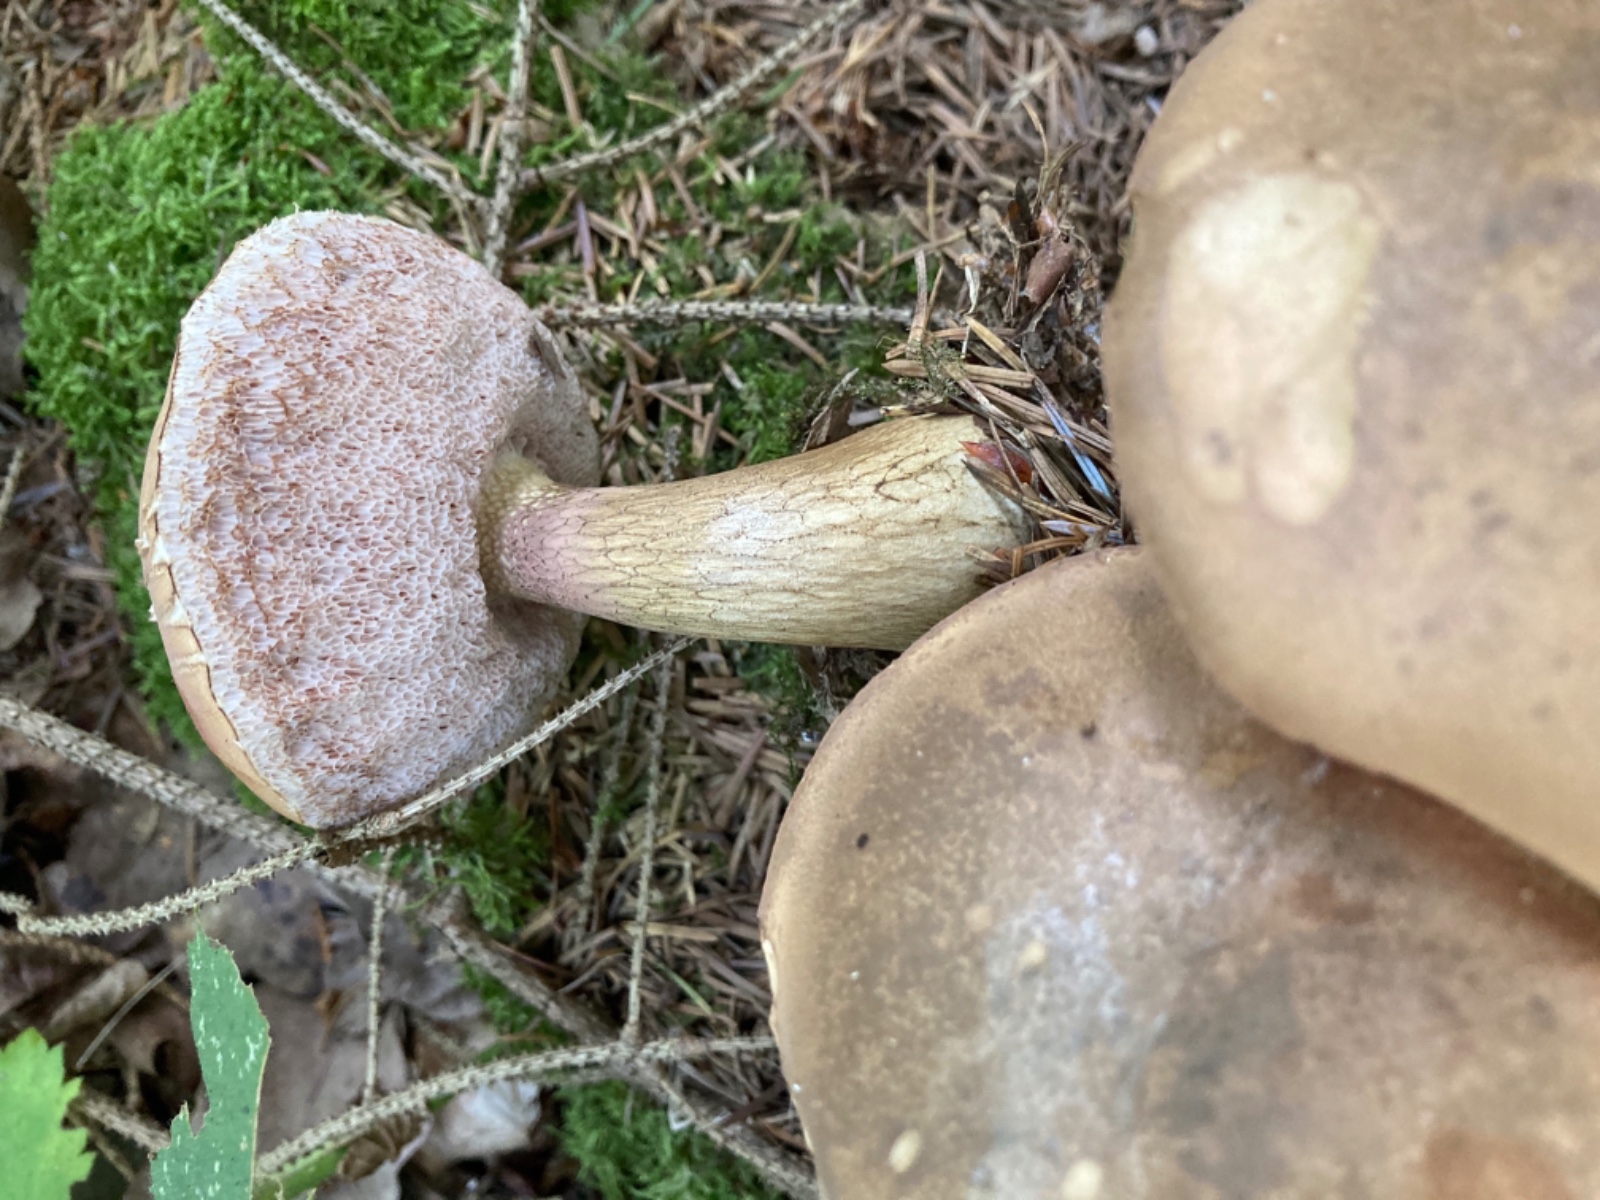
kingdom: Fungi
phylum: Basidiomycota
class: Agaricomycetes
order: Boletales
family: Boletaceae
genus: Tylopilus
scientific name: Tylopilus felleus
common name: galderørhat
